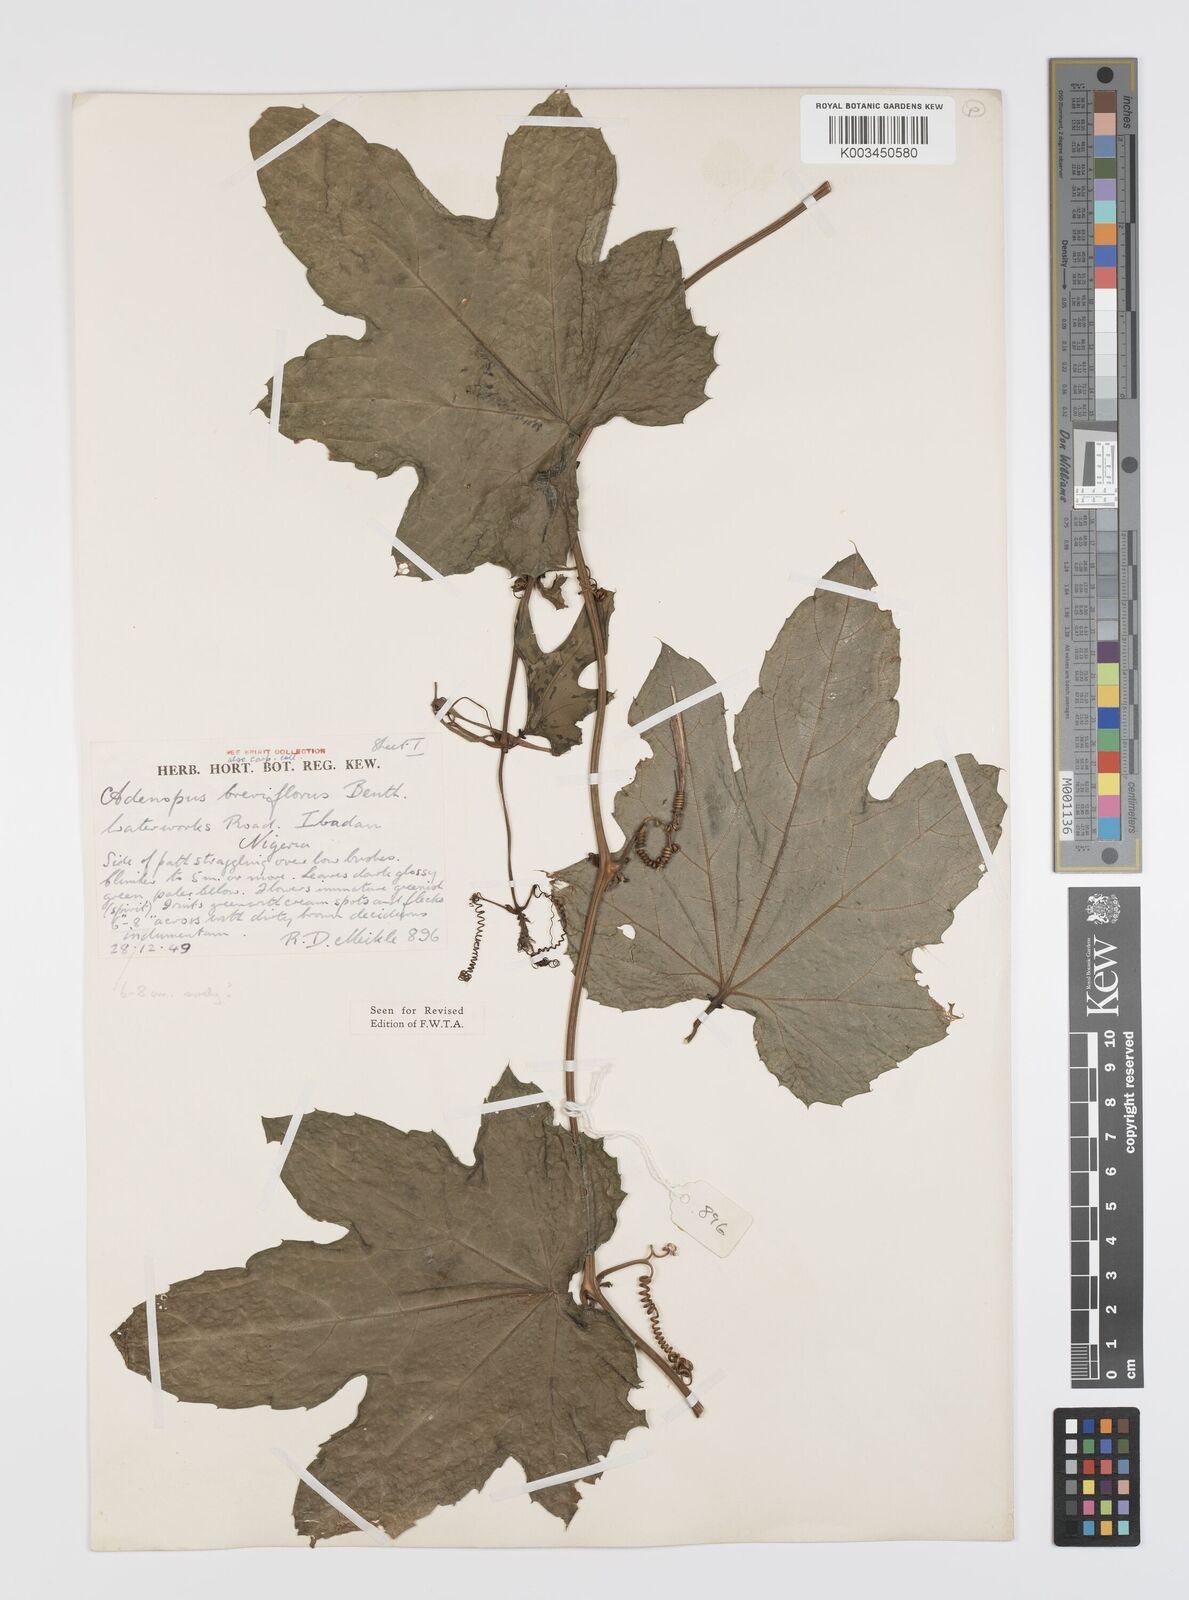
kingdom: Plantae
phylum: Tracheophyta
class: Magnoliopsida
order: Cucurbitales
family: Cucurbitaceae
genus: Lagenaria
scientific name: Lagenaria breviflora
